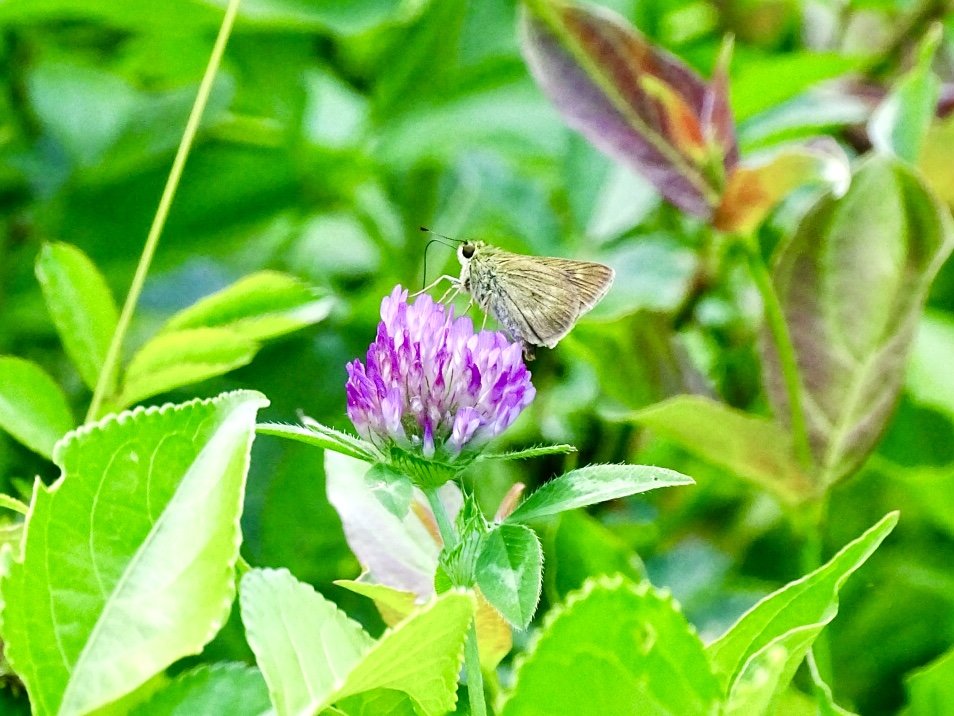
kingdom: Animalia
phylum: Arthropoda
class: Insecta
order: Lepidoptera
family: Hesperiidae
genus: Polites
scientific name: Polites egeremet
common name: Northern Broken-Dash
